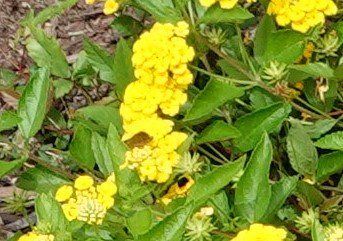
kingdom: Animalia
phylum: Arthropoda
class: Insecta
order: Lepidoptera
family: Hesperiidae
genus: Polites
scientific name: Polites vibex
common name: Whirlabout
